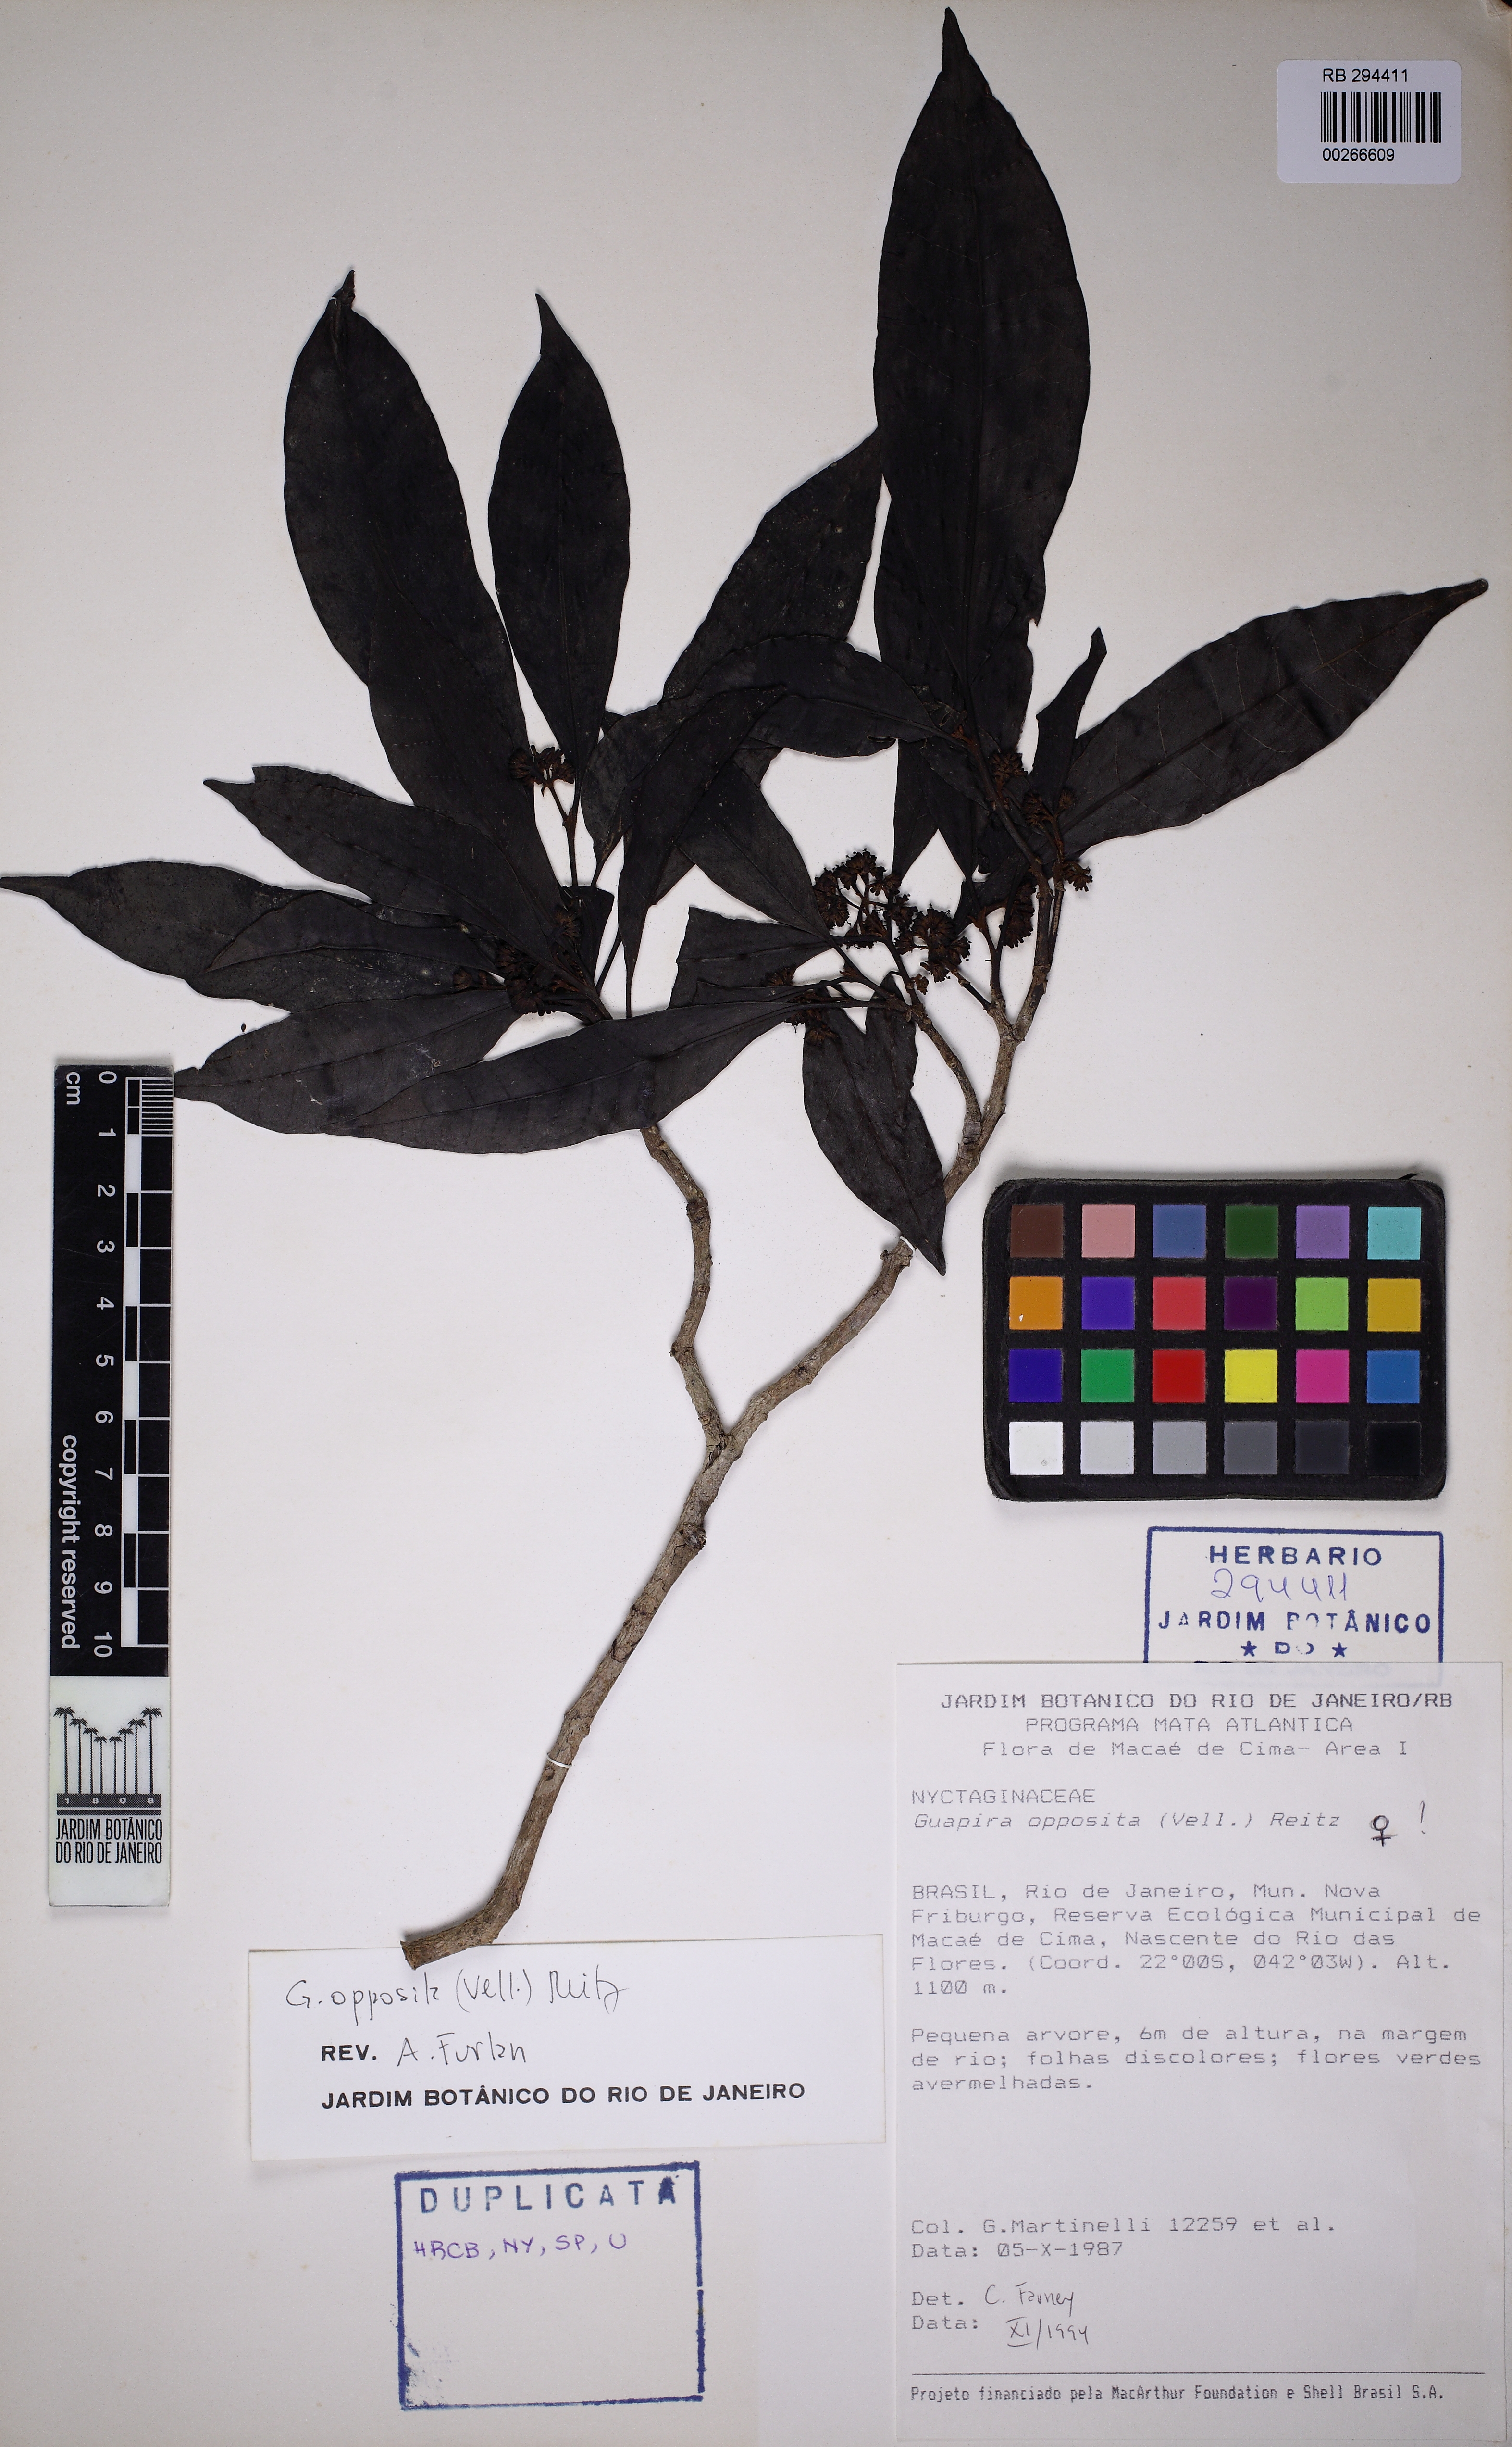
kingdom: Plantae
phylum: Tracheophyta
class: Magnoliopsida
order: Caryophyllales
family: Nyctaginaceae
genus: Guapira
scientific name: Guapira opposita
